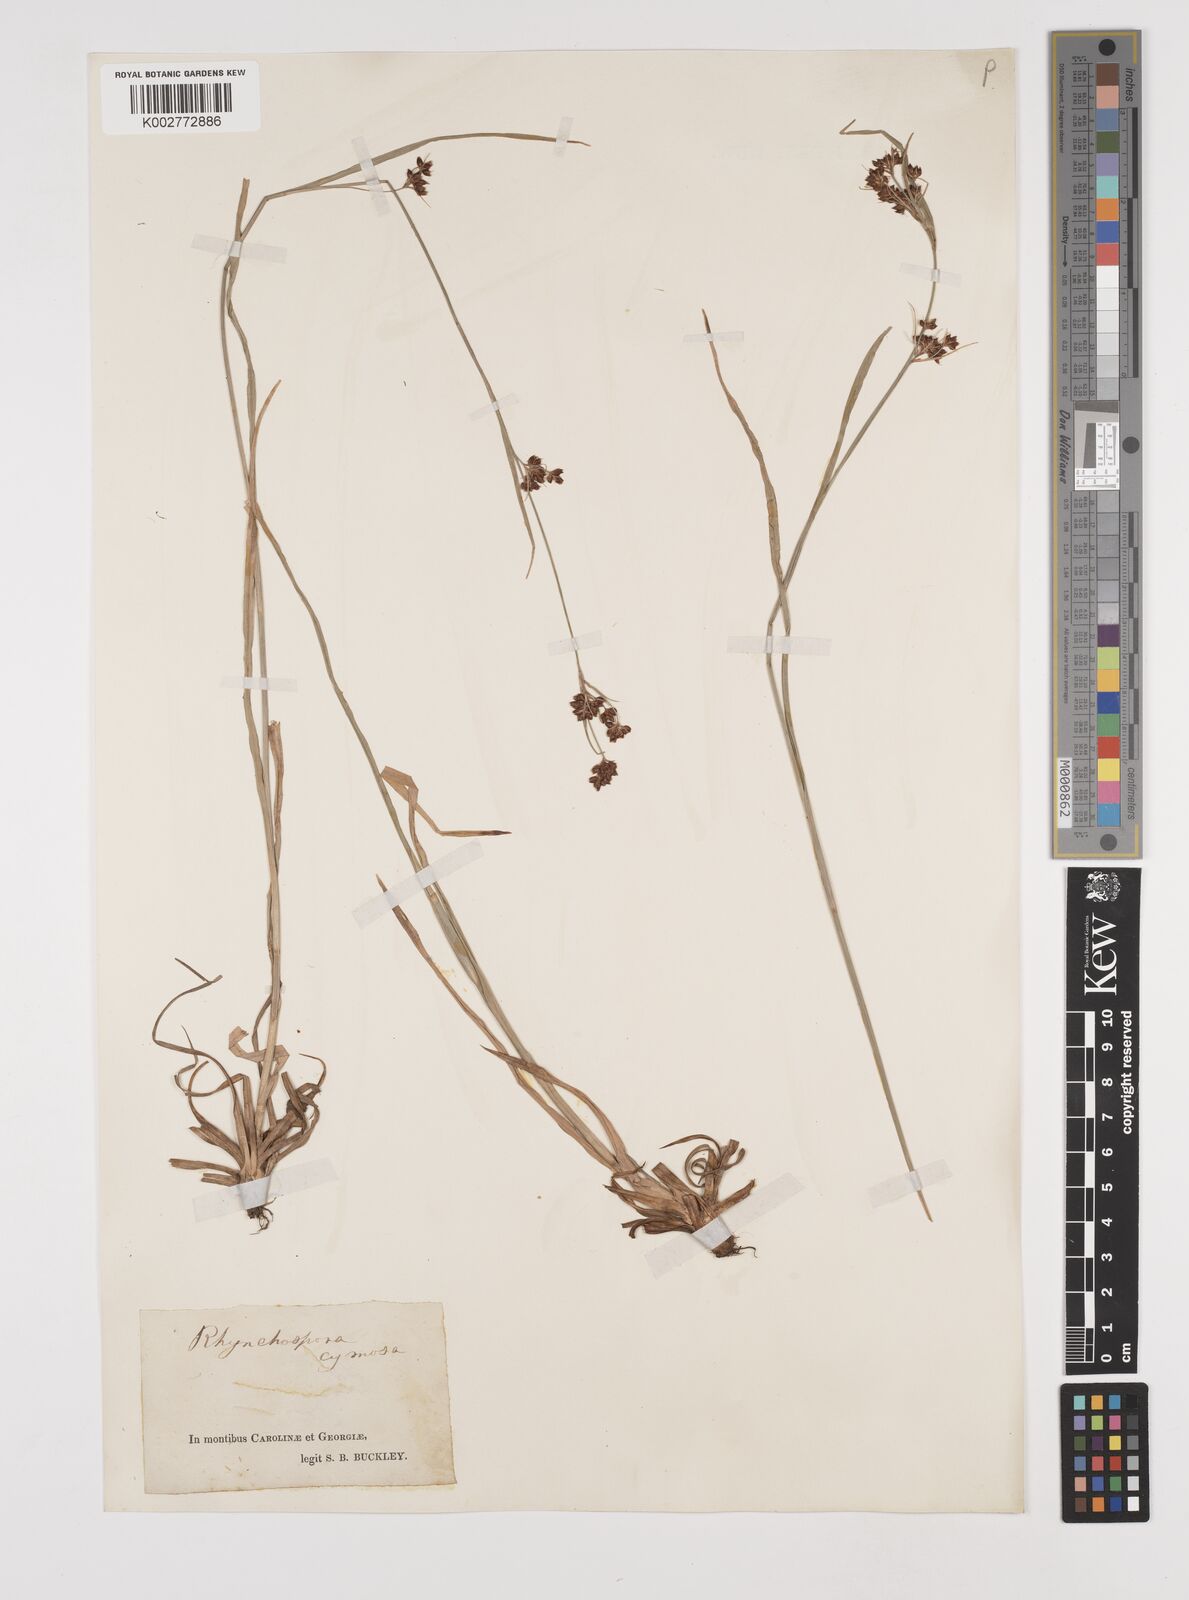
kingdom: Plantae
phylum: Tracheophyta
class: Liliopsida
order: Poales
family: Cyperaceae
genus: Scirpus
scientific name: Scirpus polyphyllus
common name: Leafy bulrush
